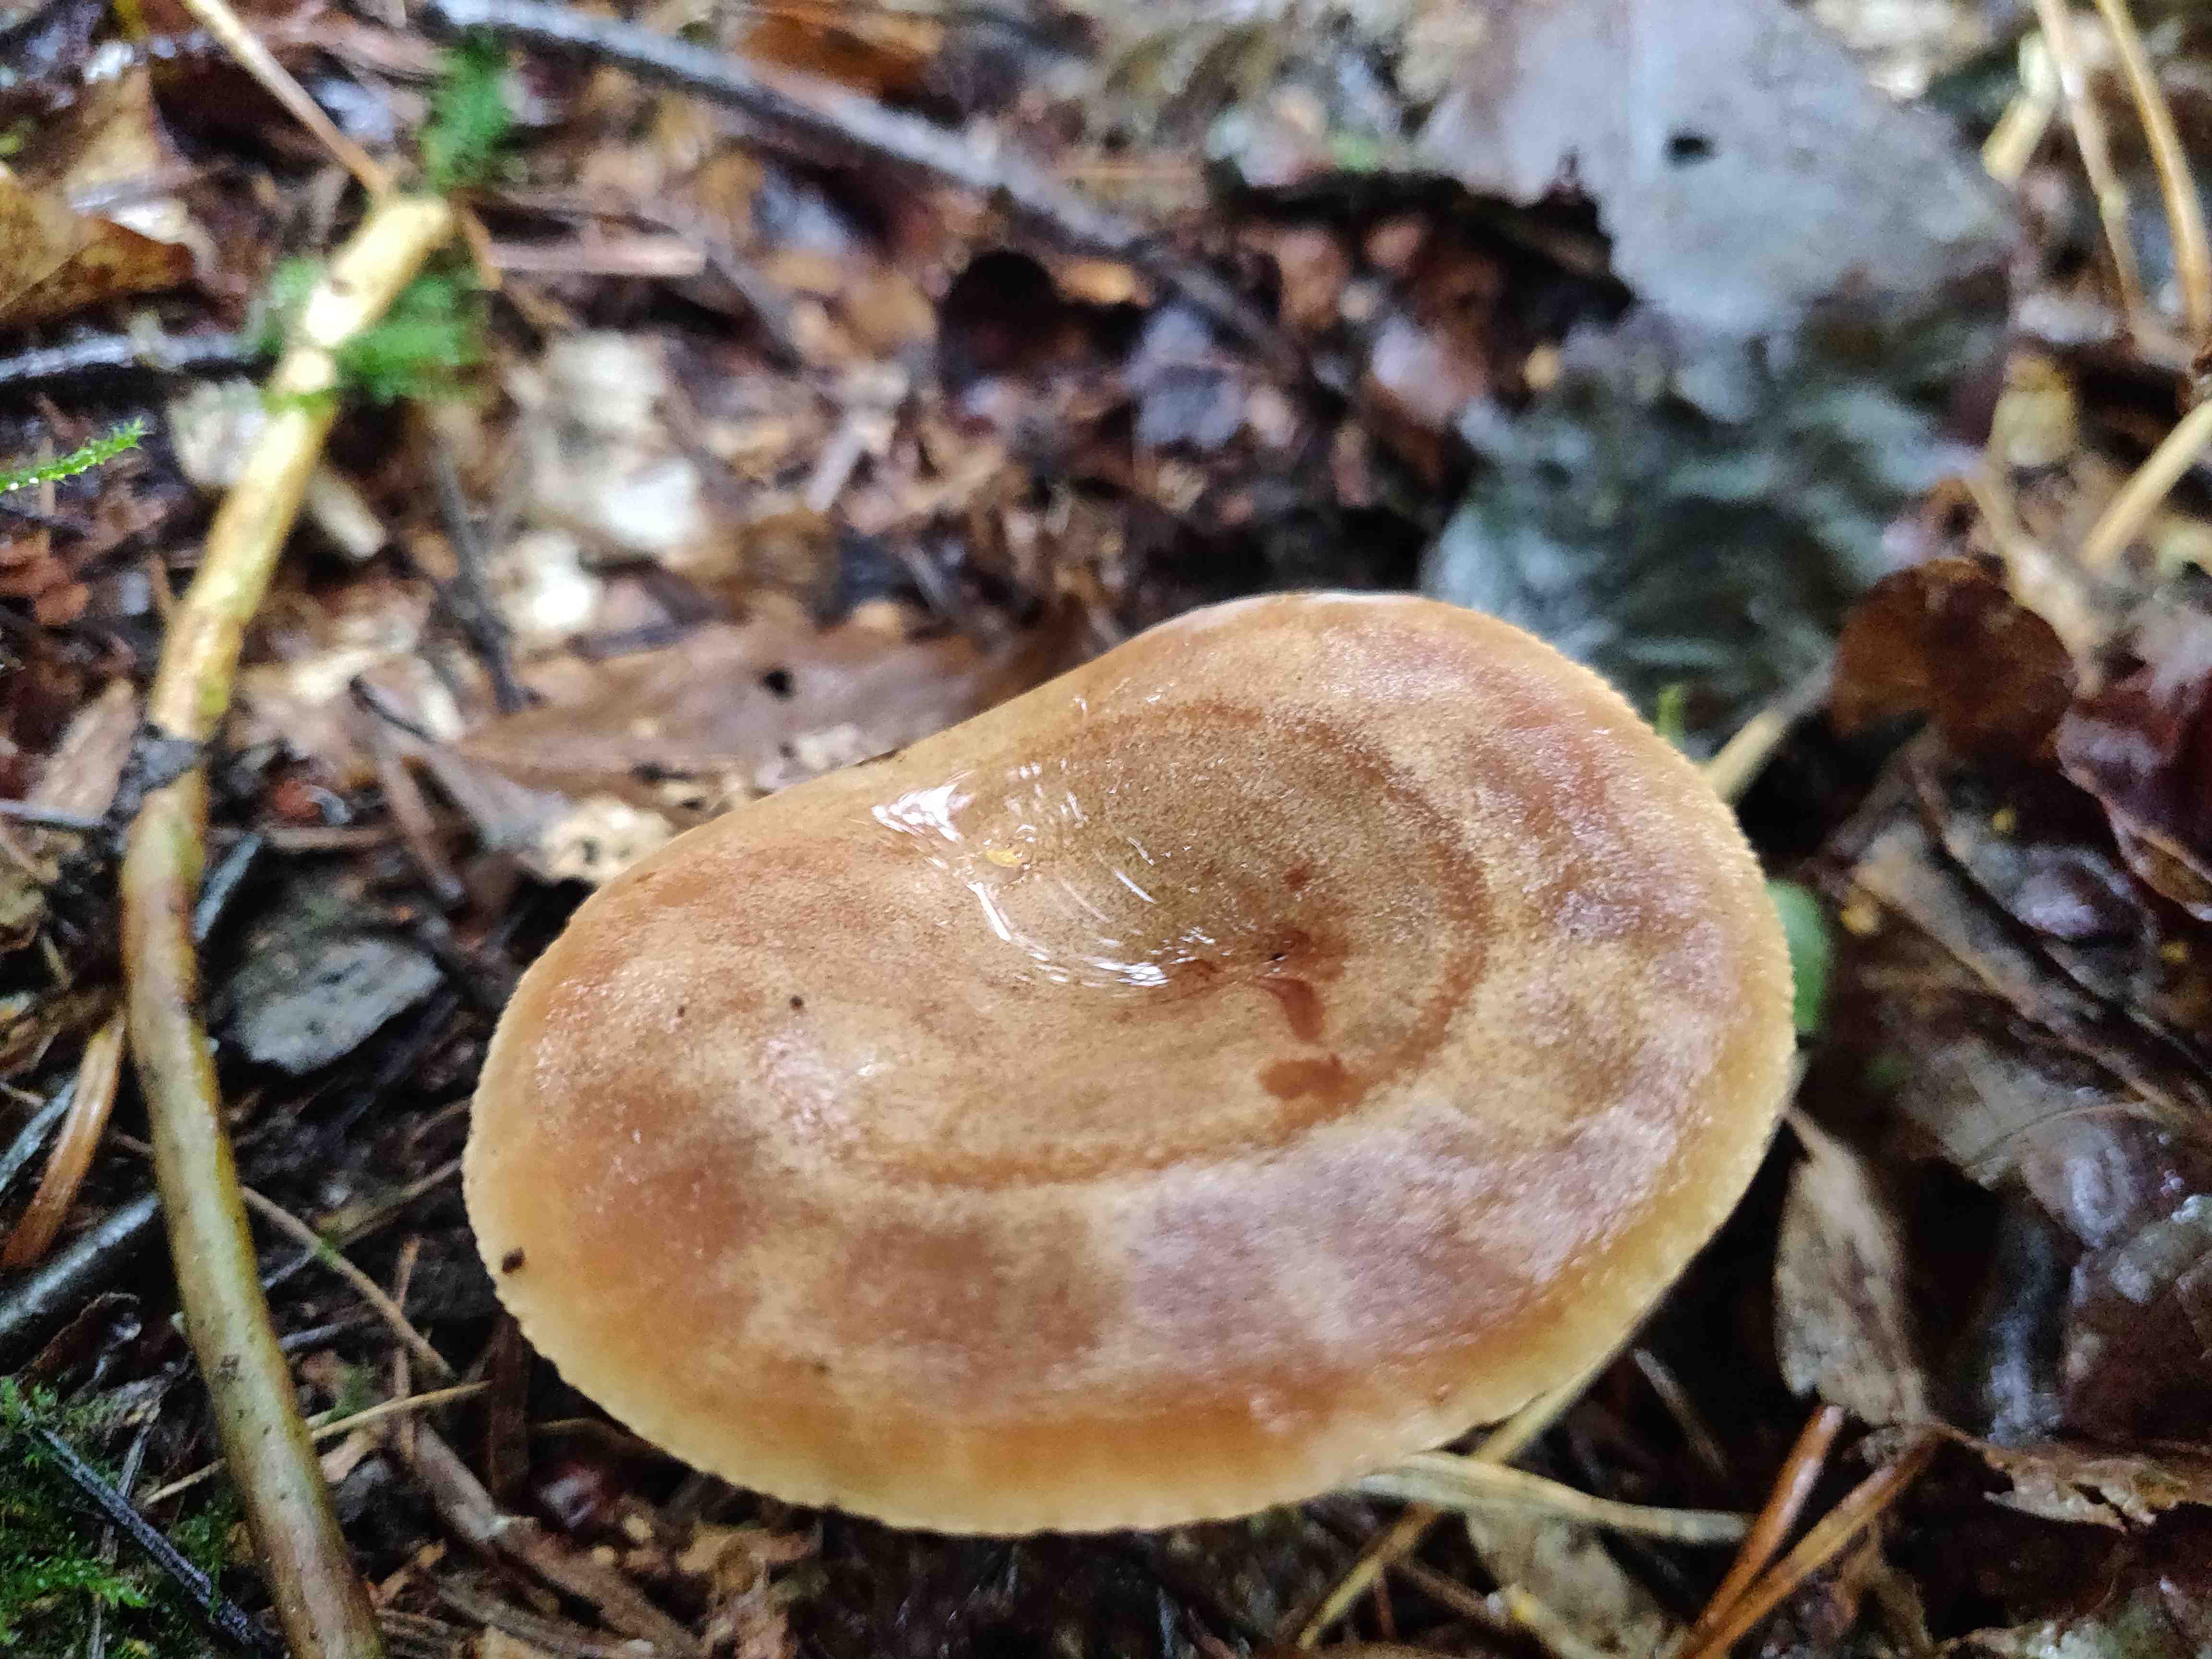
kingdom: Fungi
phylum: Basidiomycota
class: Agaricomycetes
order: Russulales
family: Russulaceae
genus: Lactarius
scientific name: Lactarius
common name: mælkehat
